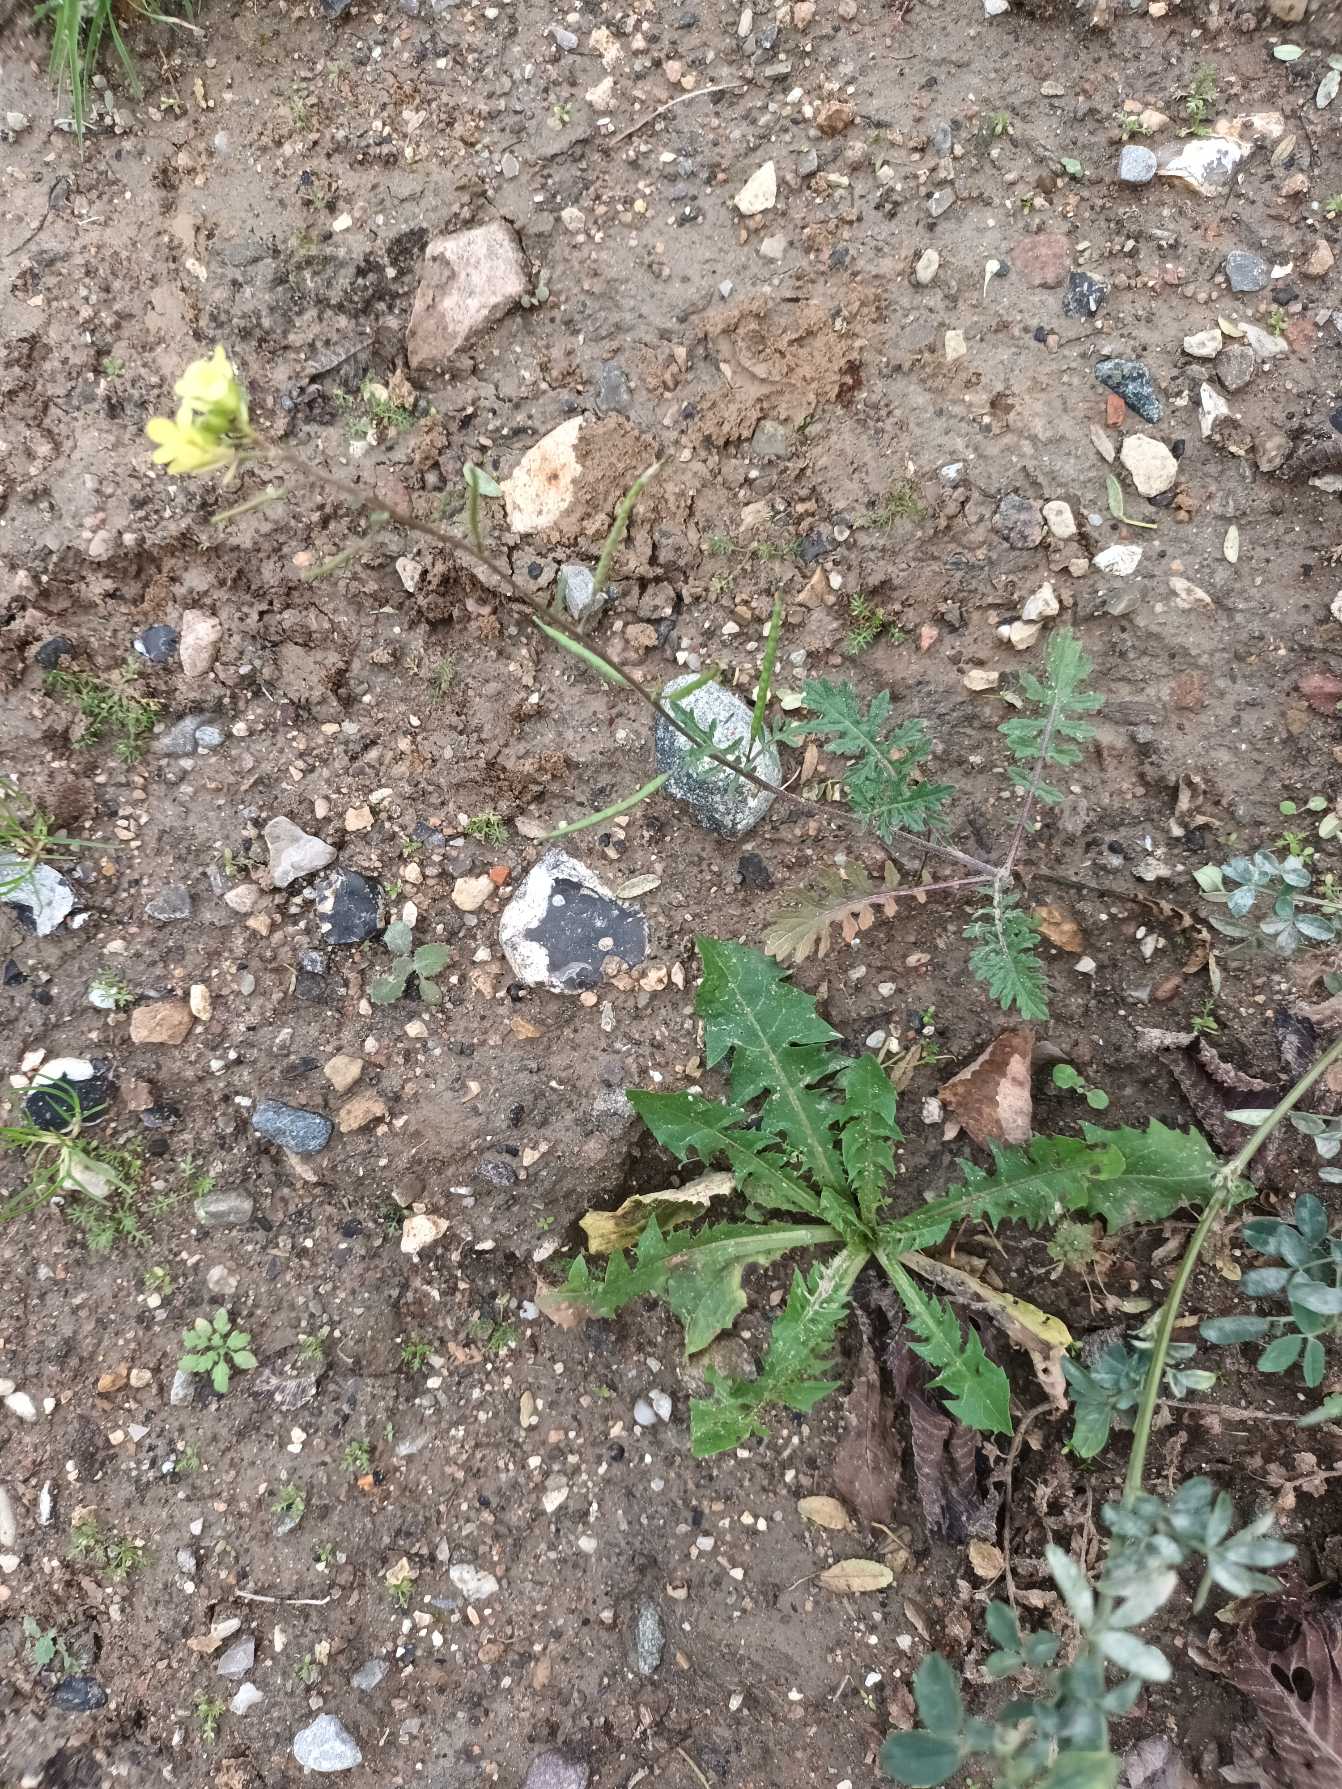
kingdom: Plantae
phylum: Tracheophyta
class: Magnoliopsida
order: Brassicales
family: Brassicaceae
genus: Erucastrum
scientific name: Erucastrum gallicum
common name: Svinesennep
